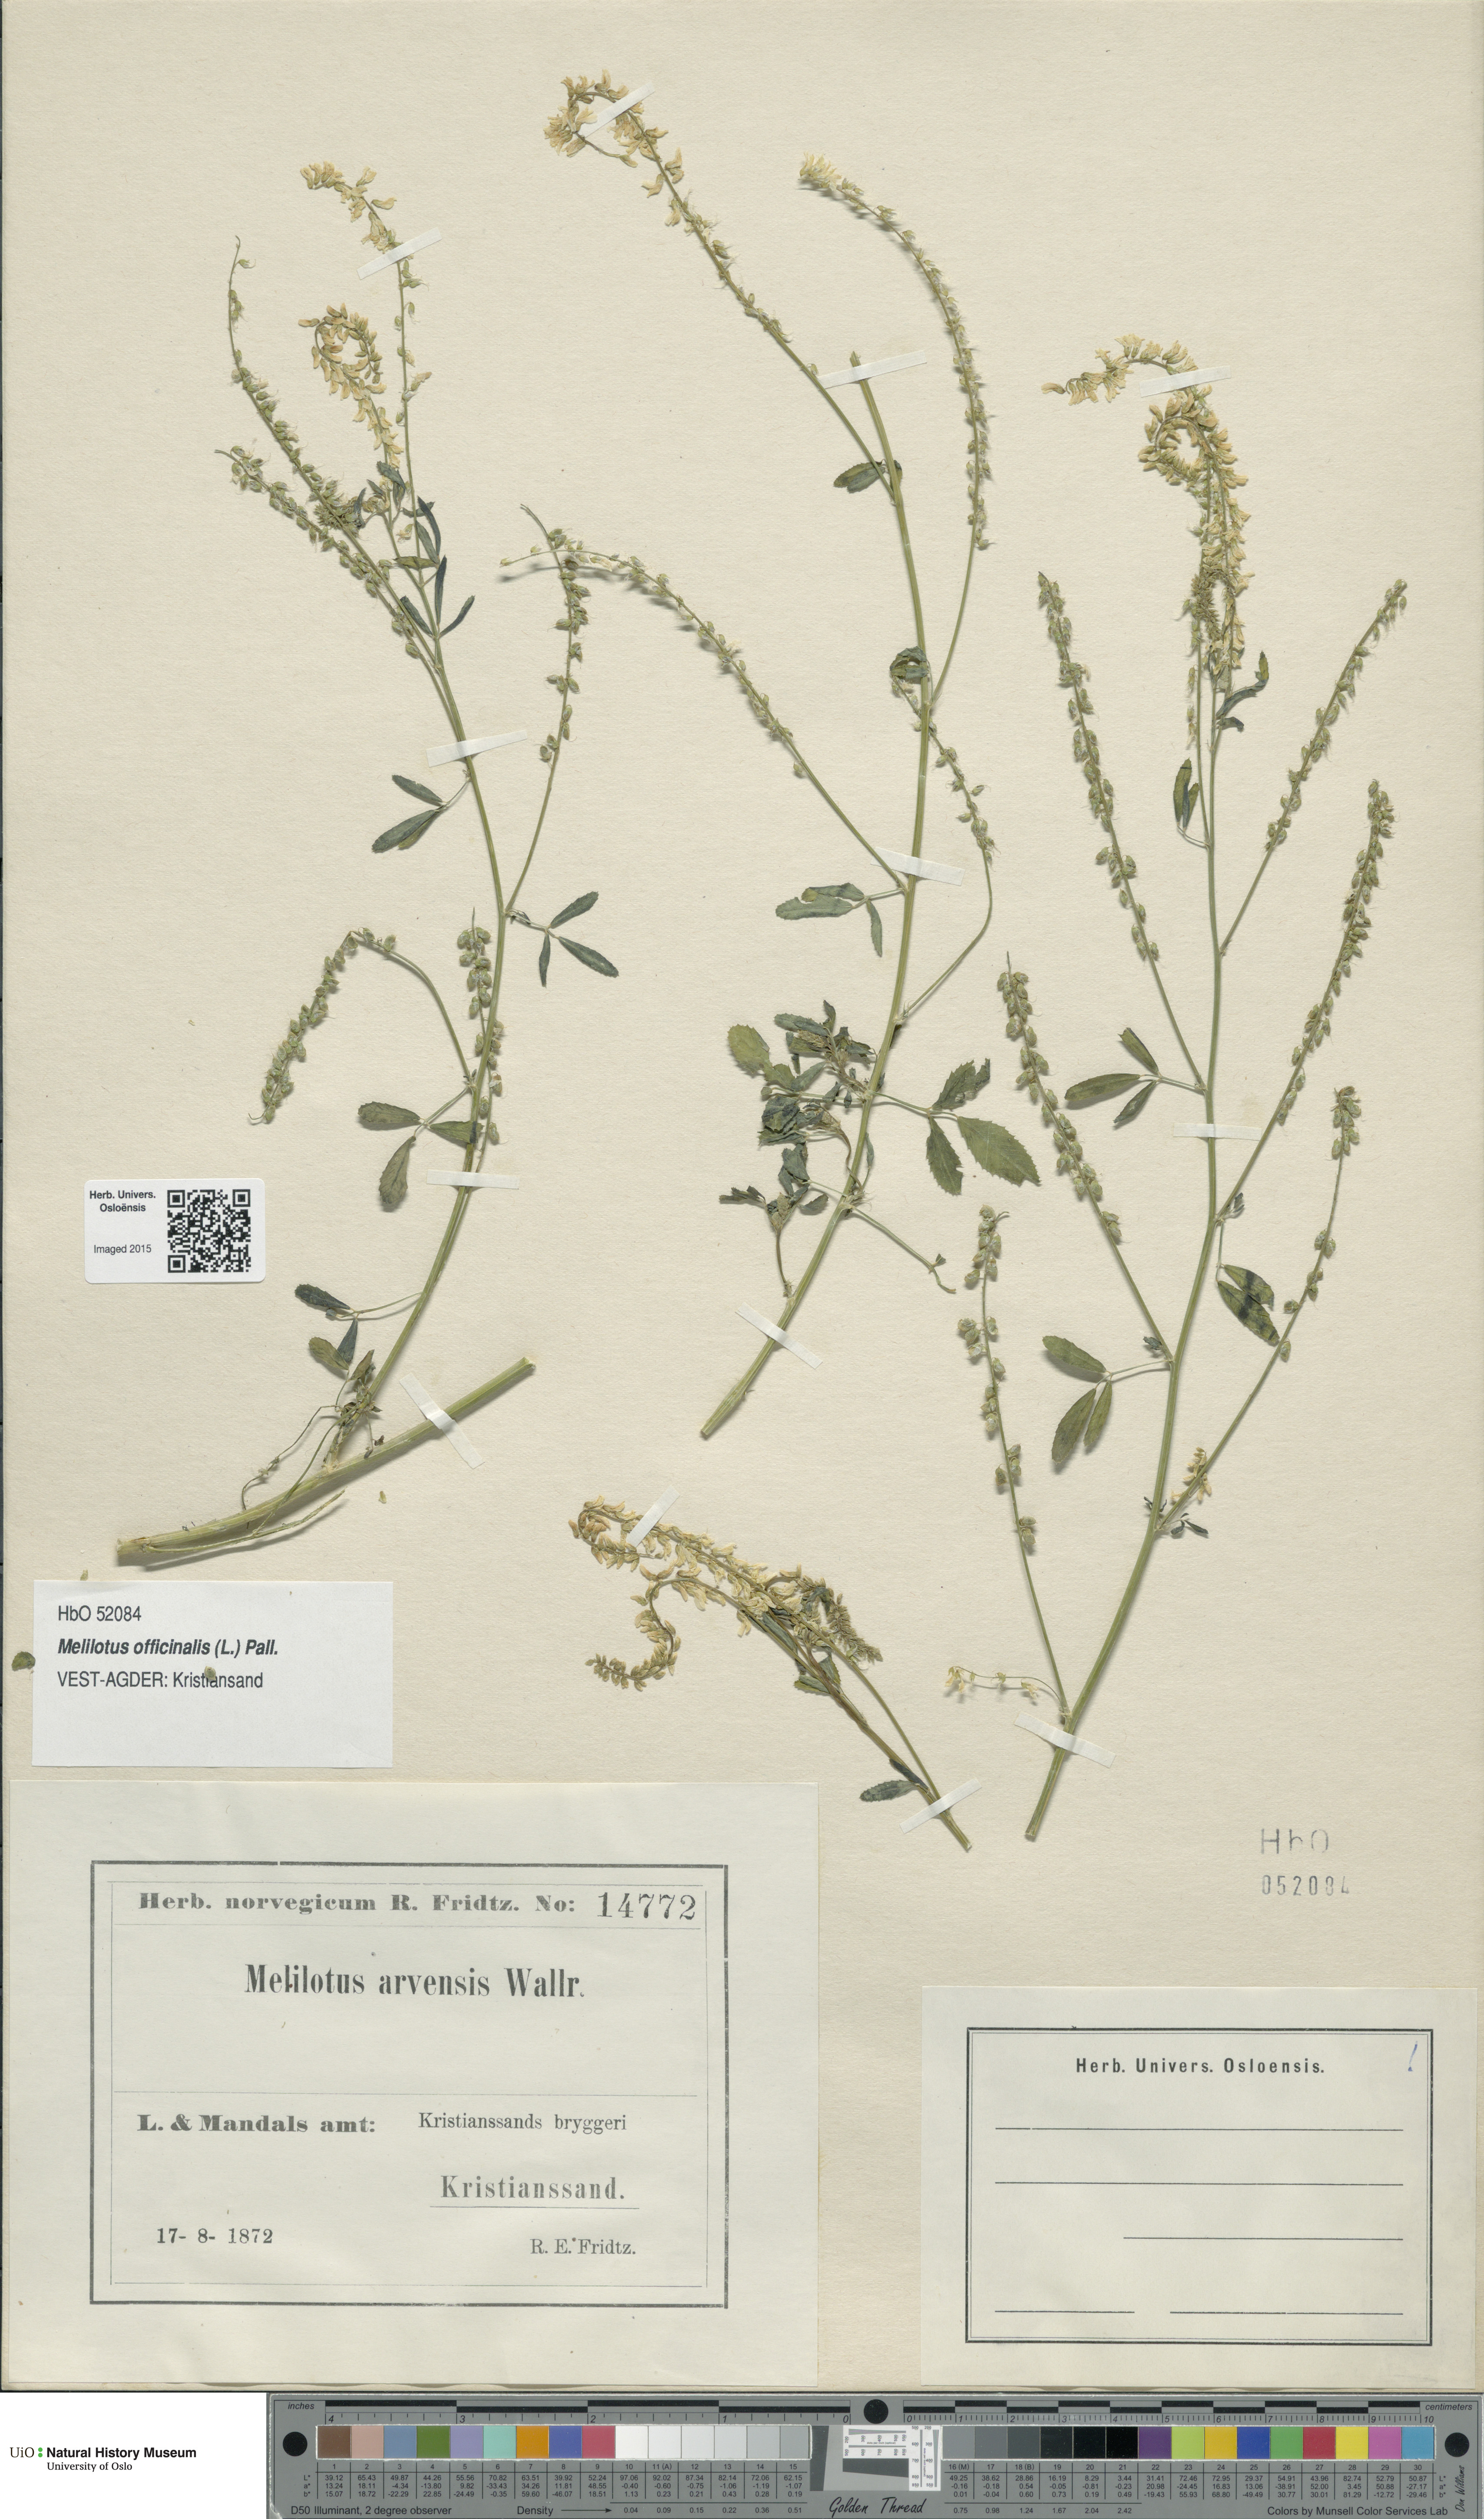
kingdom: Plantae
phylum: Tracheophyta
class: Magnoliopsida
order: Fabales
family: Fabaceae
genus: Melilotus
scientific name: Melilotus officinalis
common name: Sweetclover
